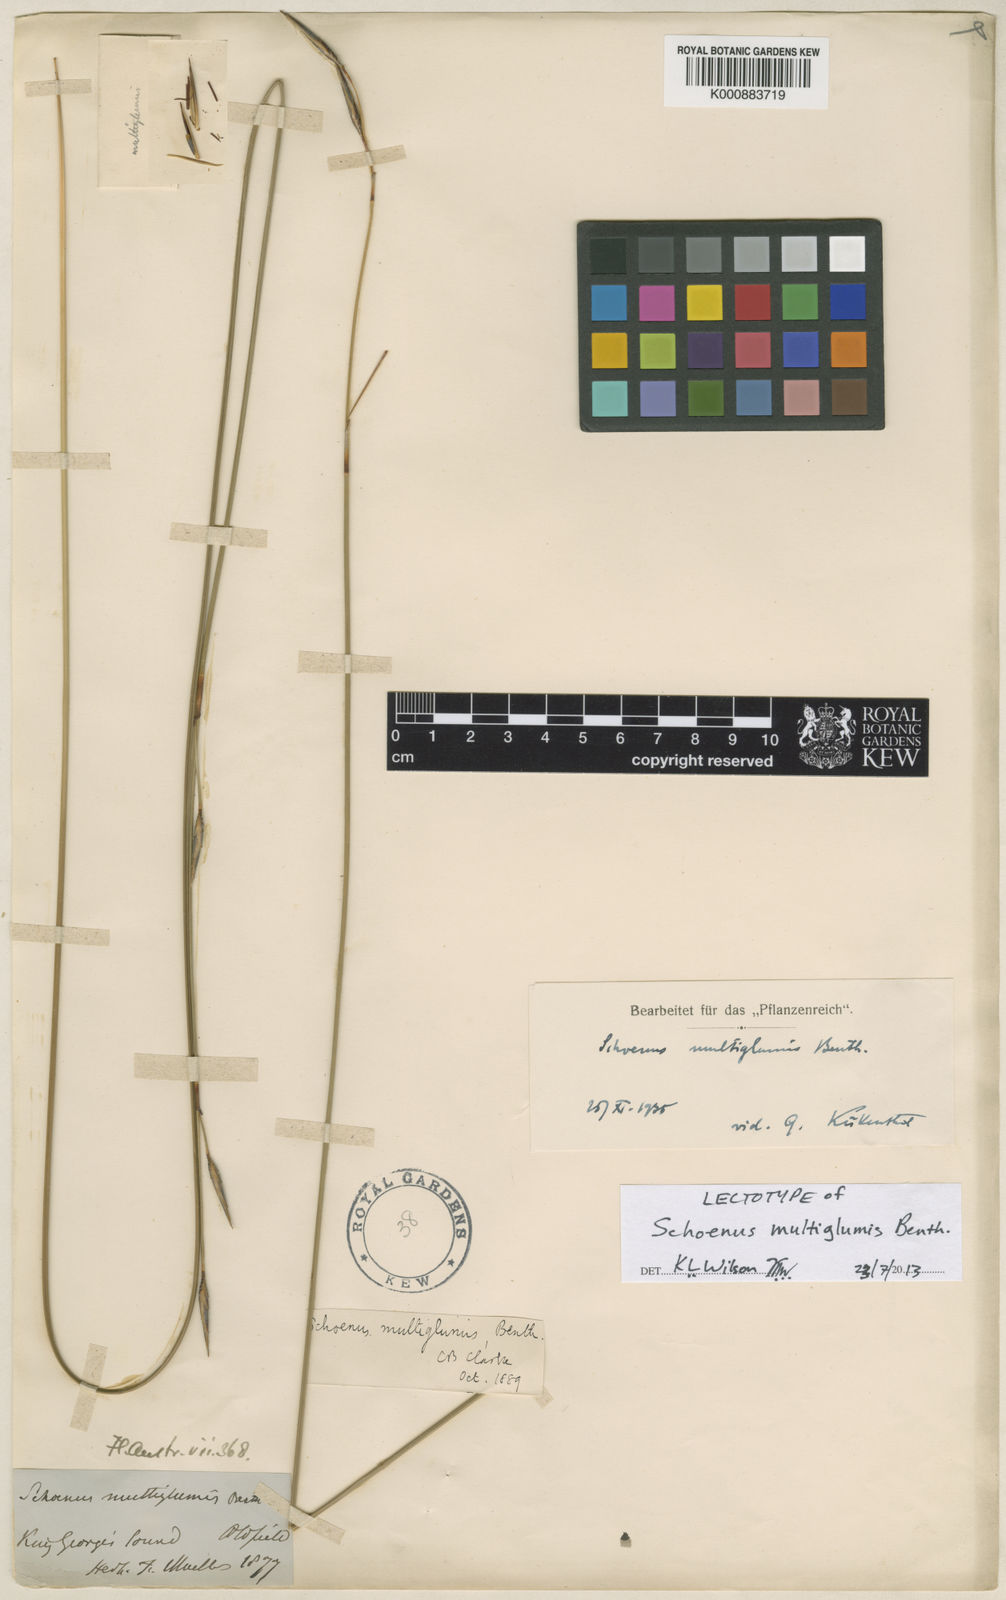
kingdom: Plantae
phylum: Tracheophyta
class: Liliopsida
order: Poales
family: Cyperaceae
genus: Schoenus
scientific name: Schoenus multiglumis
